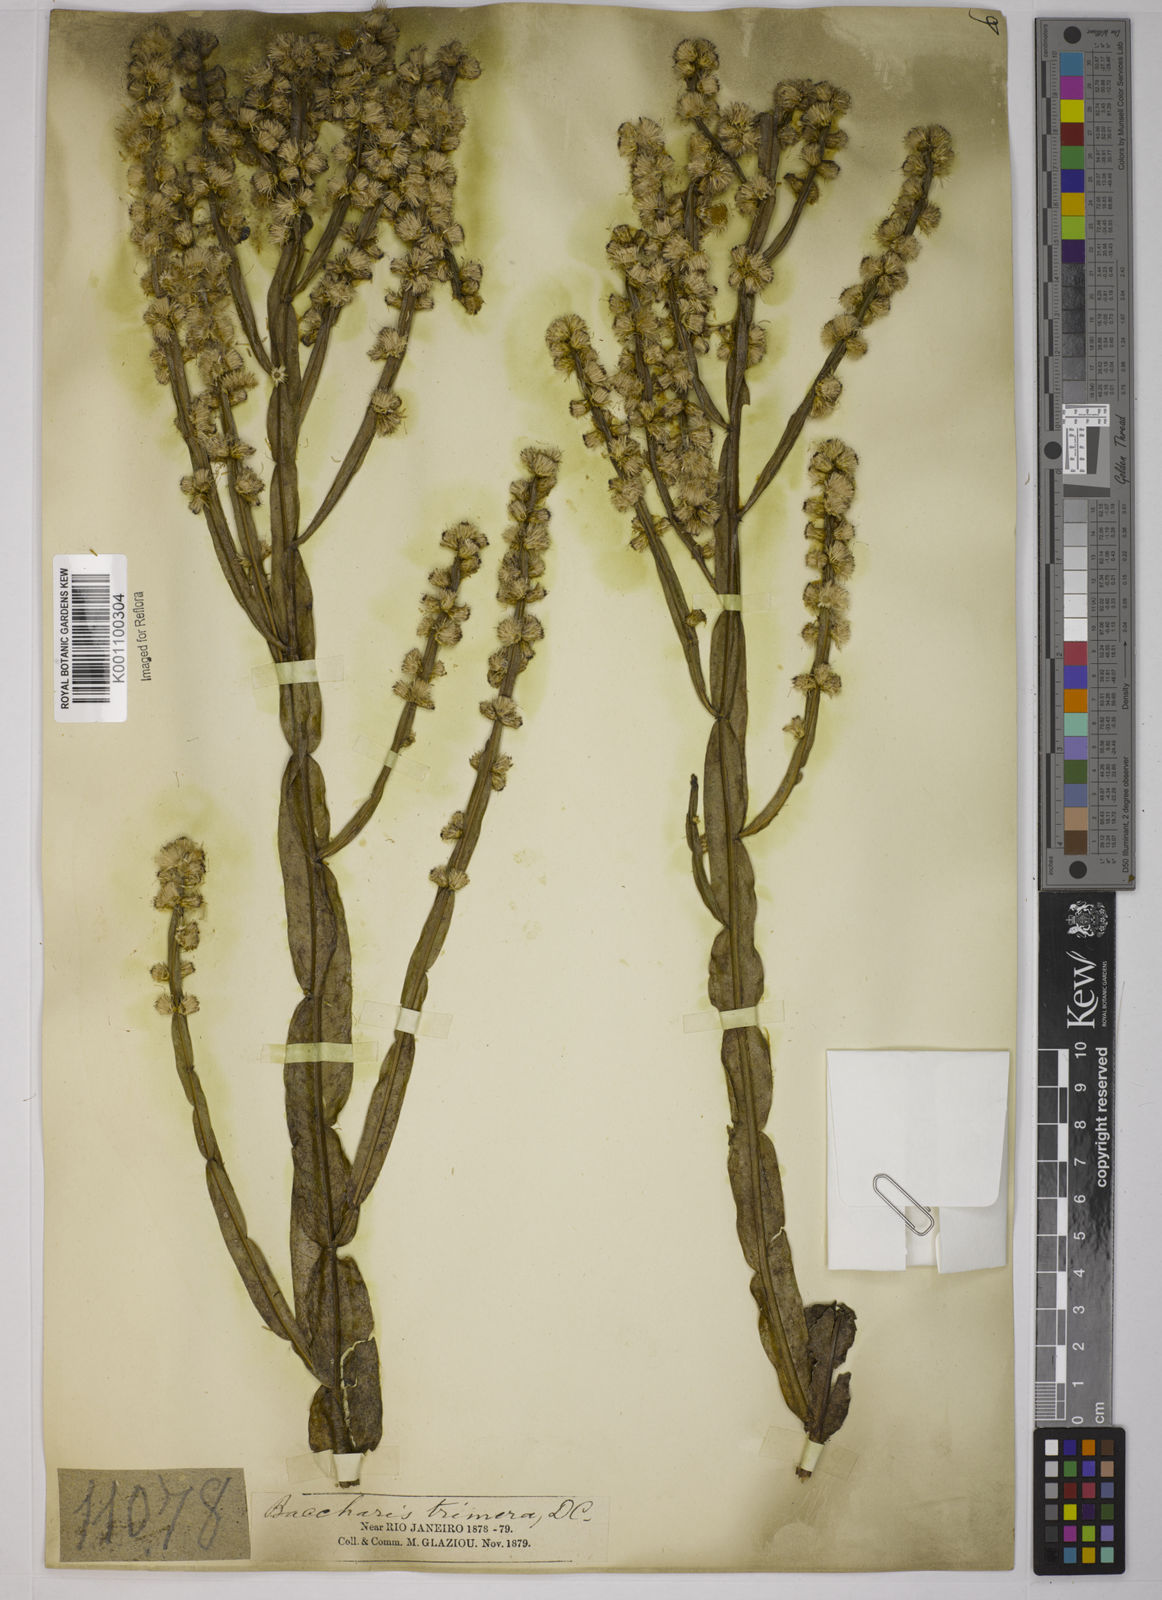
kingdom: Plantae
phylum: Tracheophyta
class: Magnoliopsida
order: Asterales
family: Asteraceae
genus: Baccharis
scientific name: Baccharis trimera
